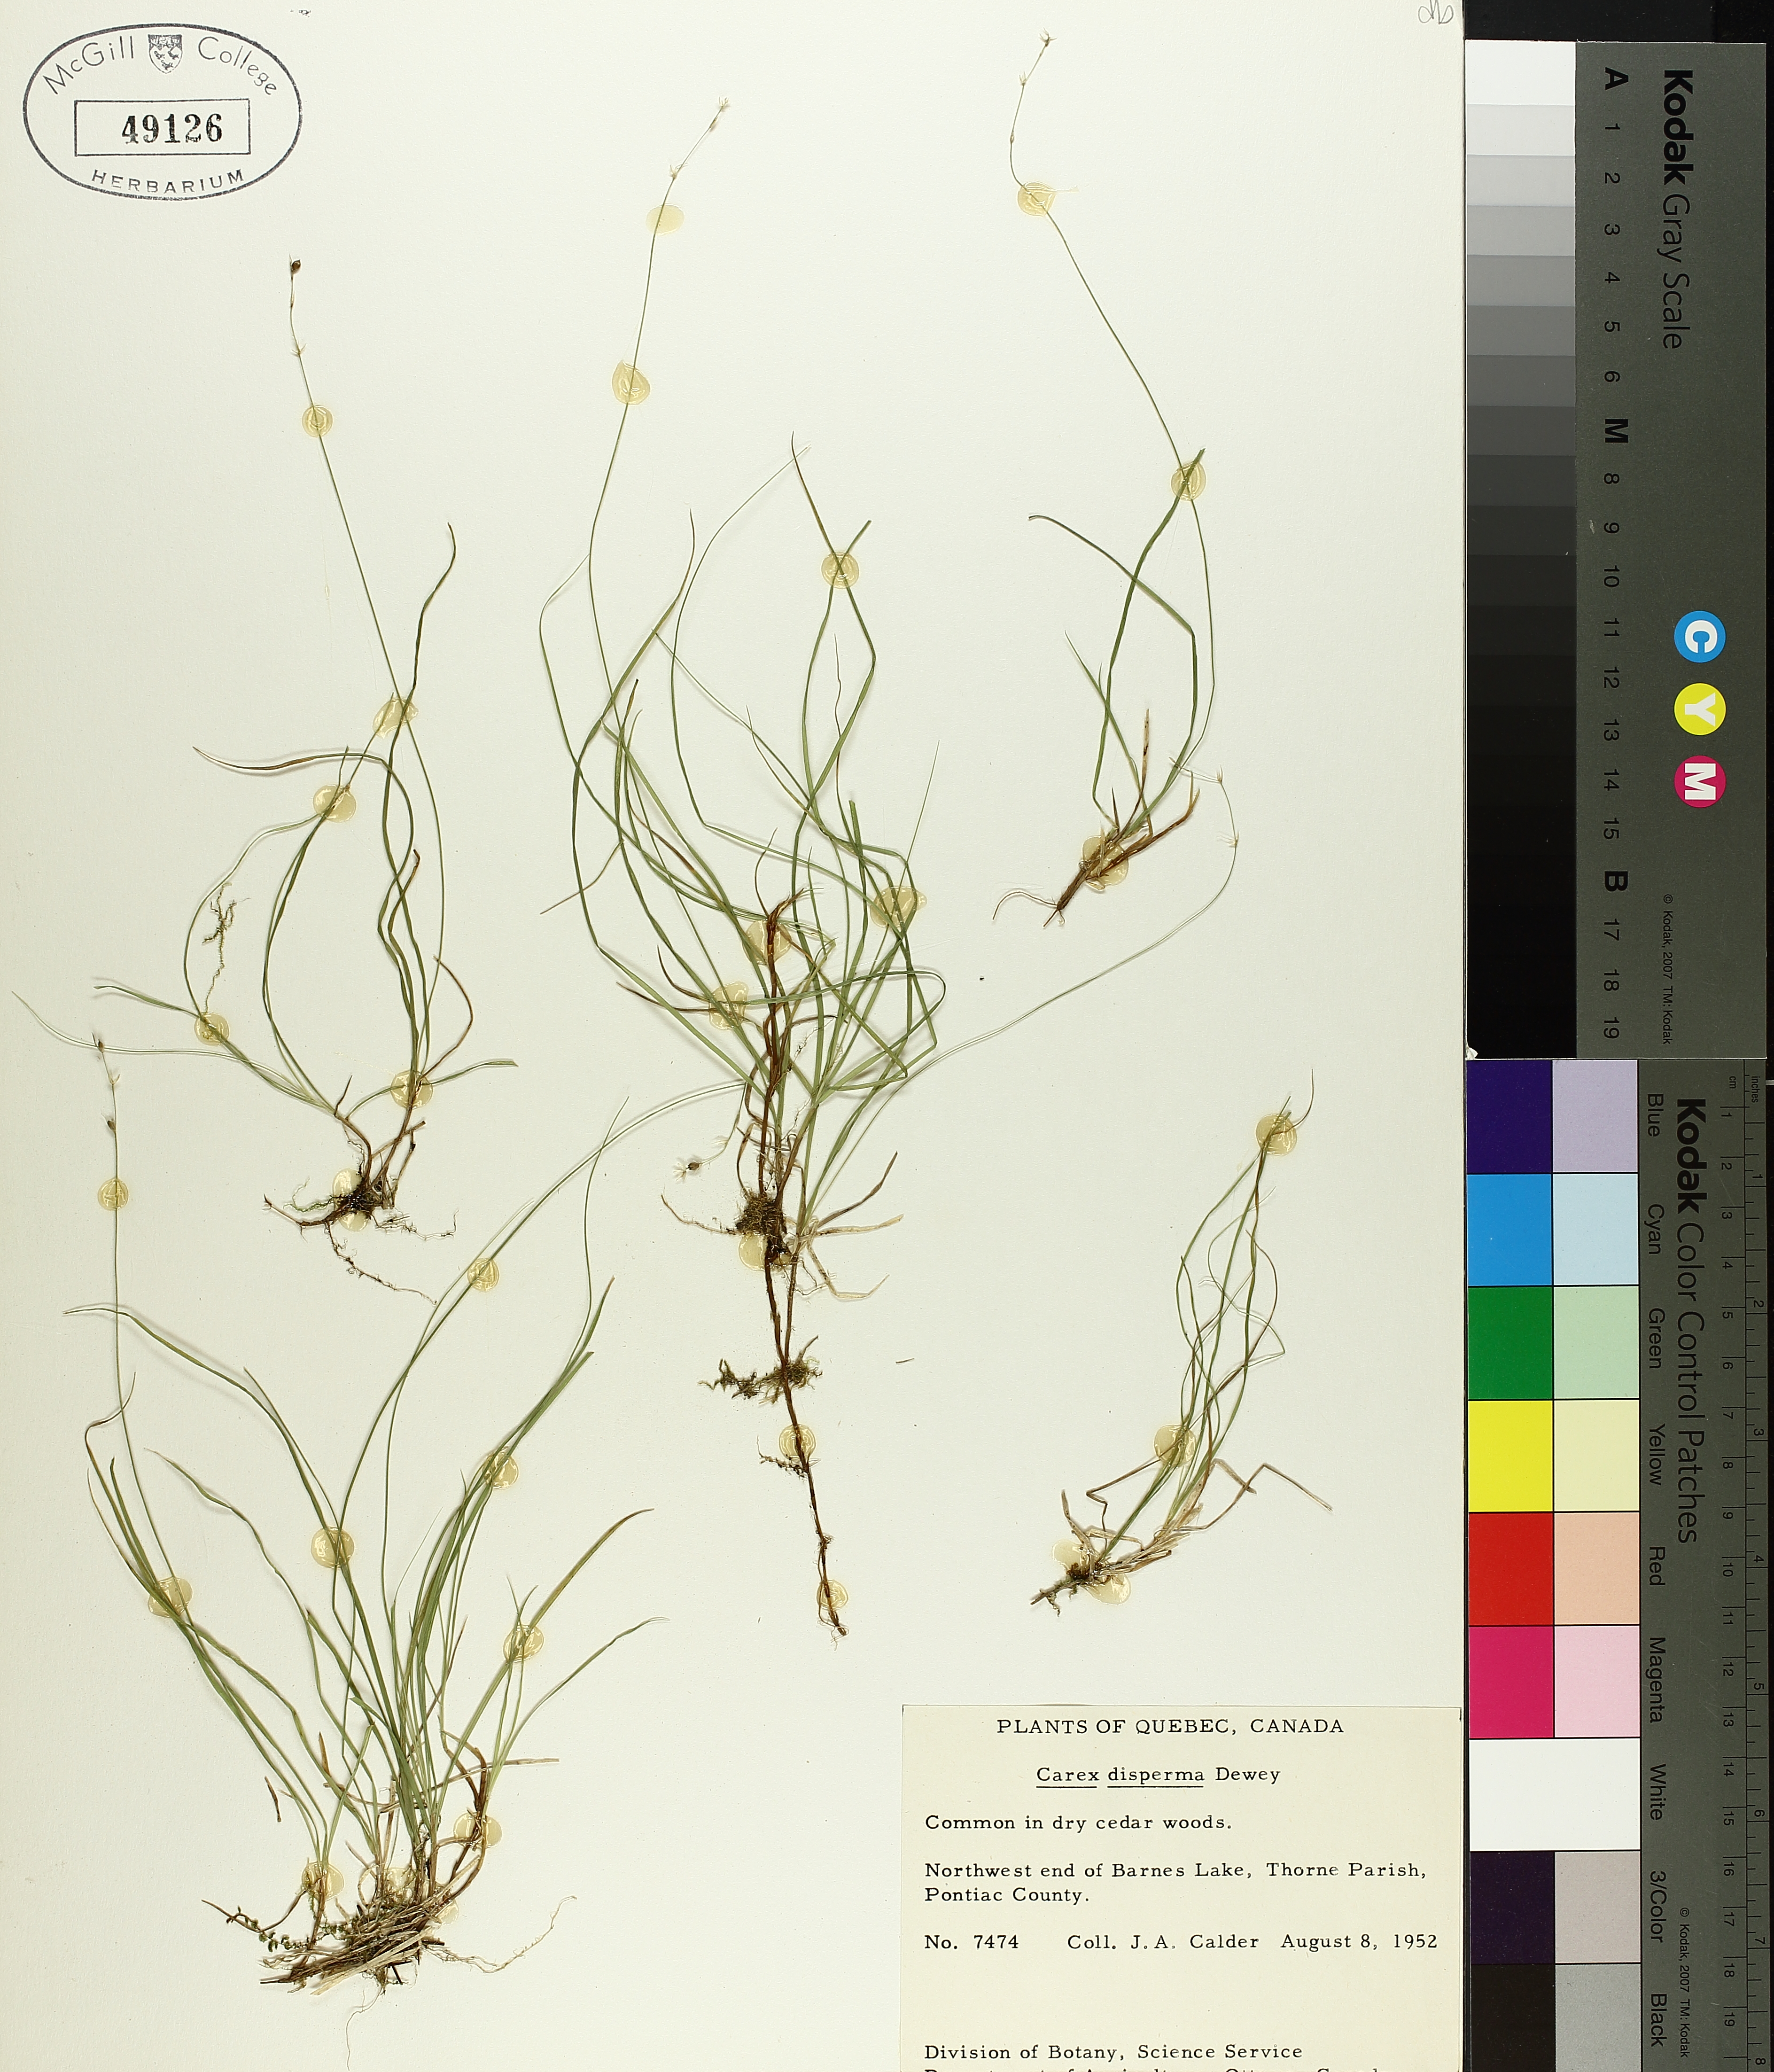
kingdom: Plantae
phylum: Tracheophyta
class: Liliopsida
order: Poales
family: Cyperaceae
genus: Carex
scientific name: Carex disperma
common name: Short-leaved sedge
